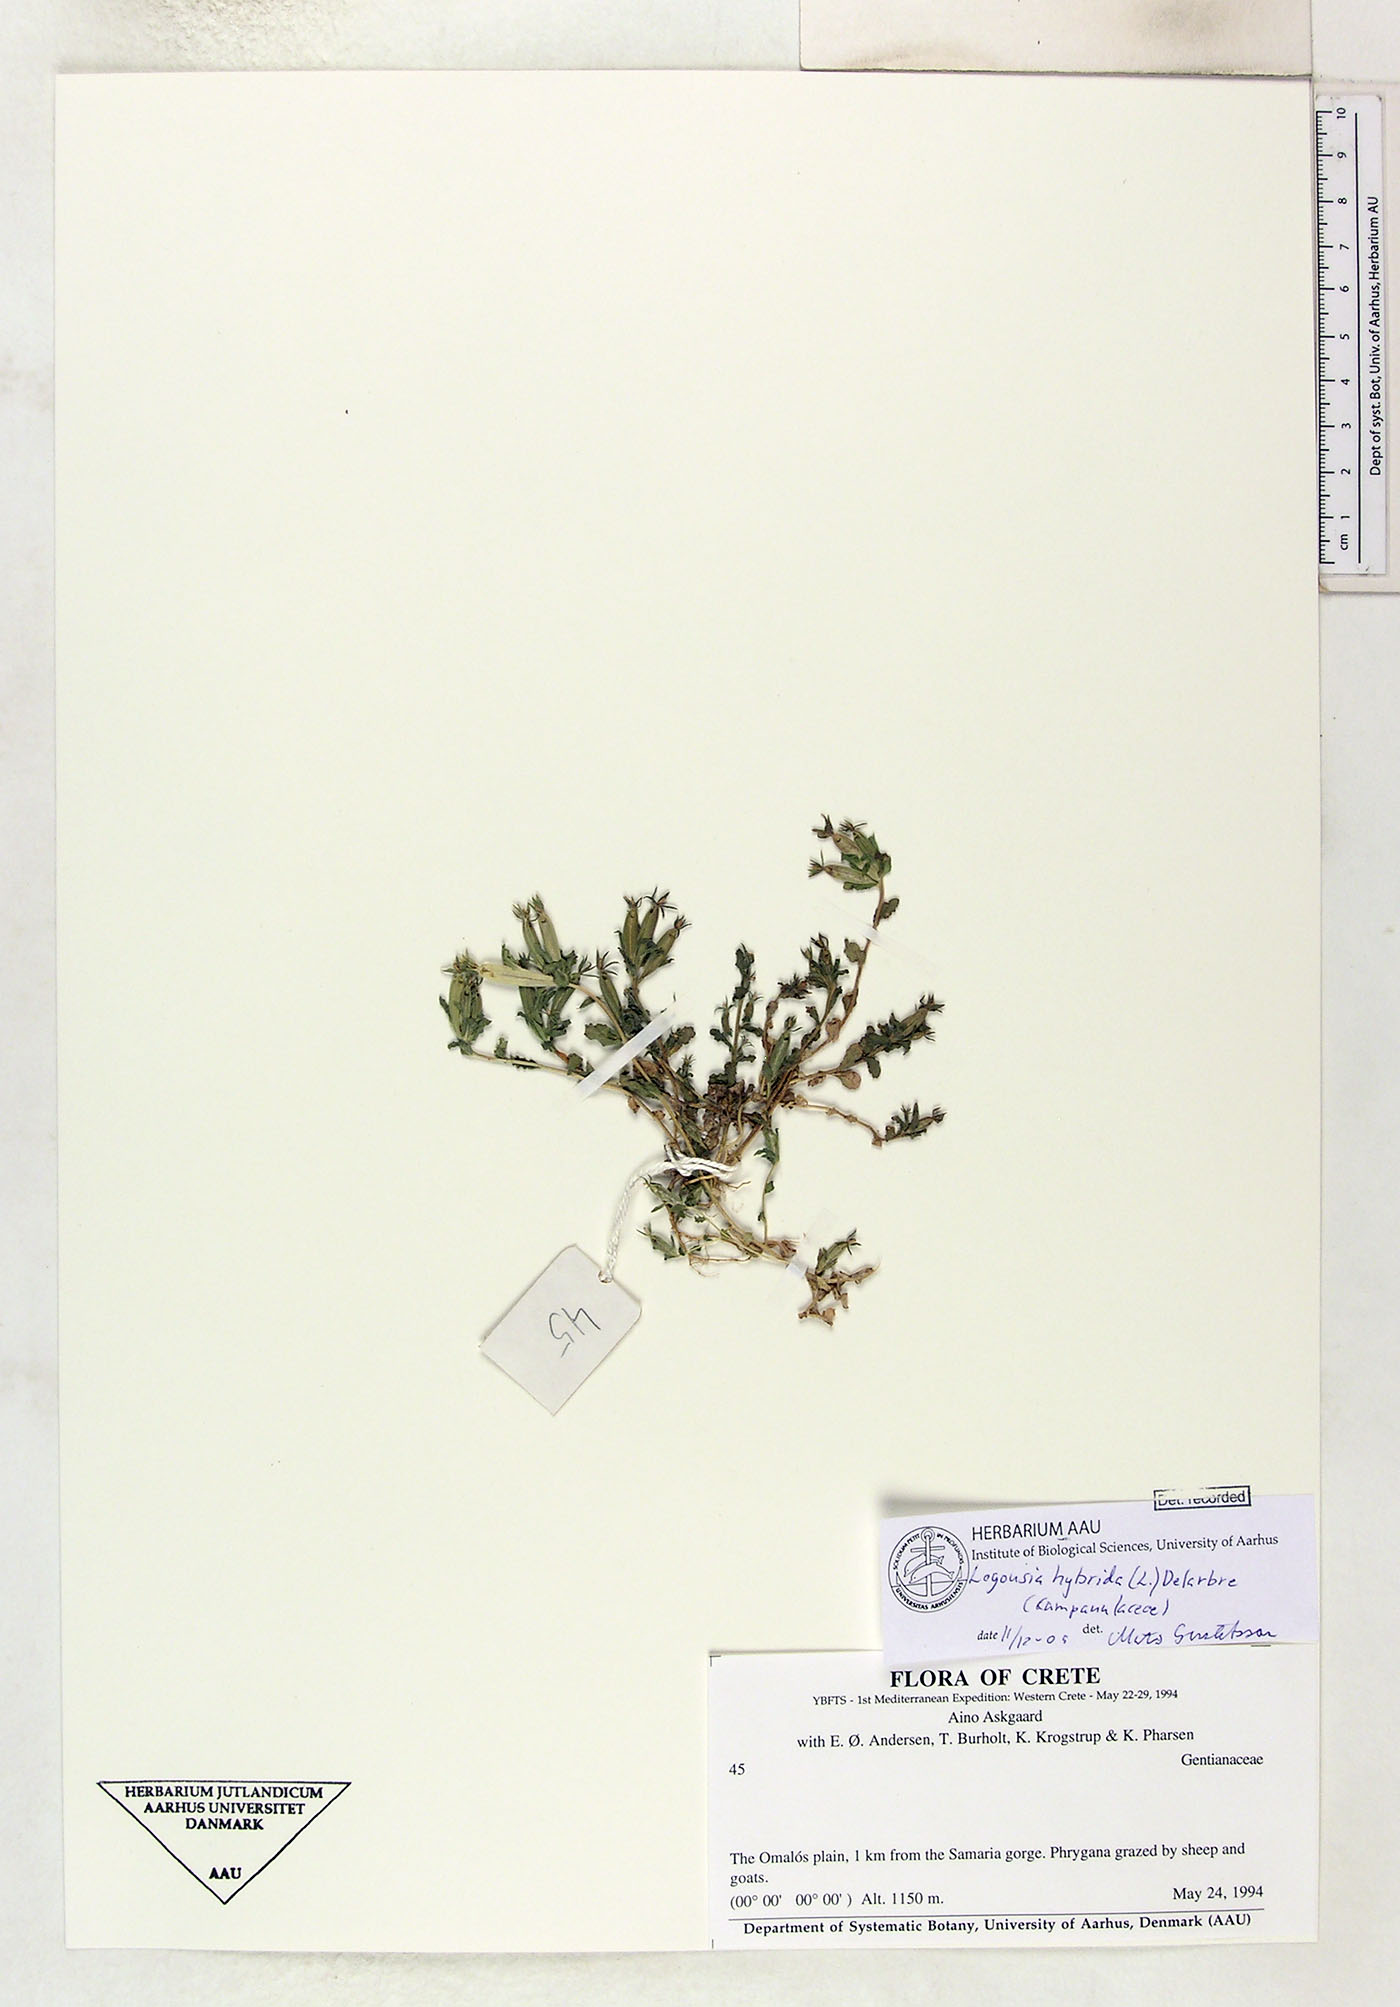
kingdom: Plantae
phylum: Tracheophyta
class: Magnoliopsida
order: Asterales
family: Campanulaceae
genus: Legousia
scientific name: Legousia hybrida
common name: Venus's-looking-glass
